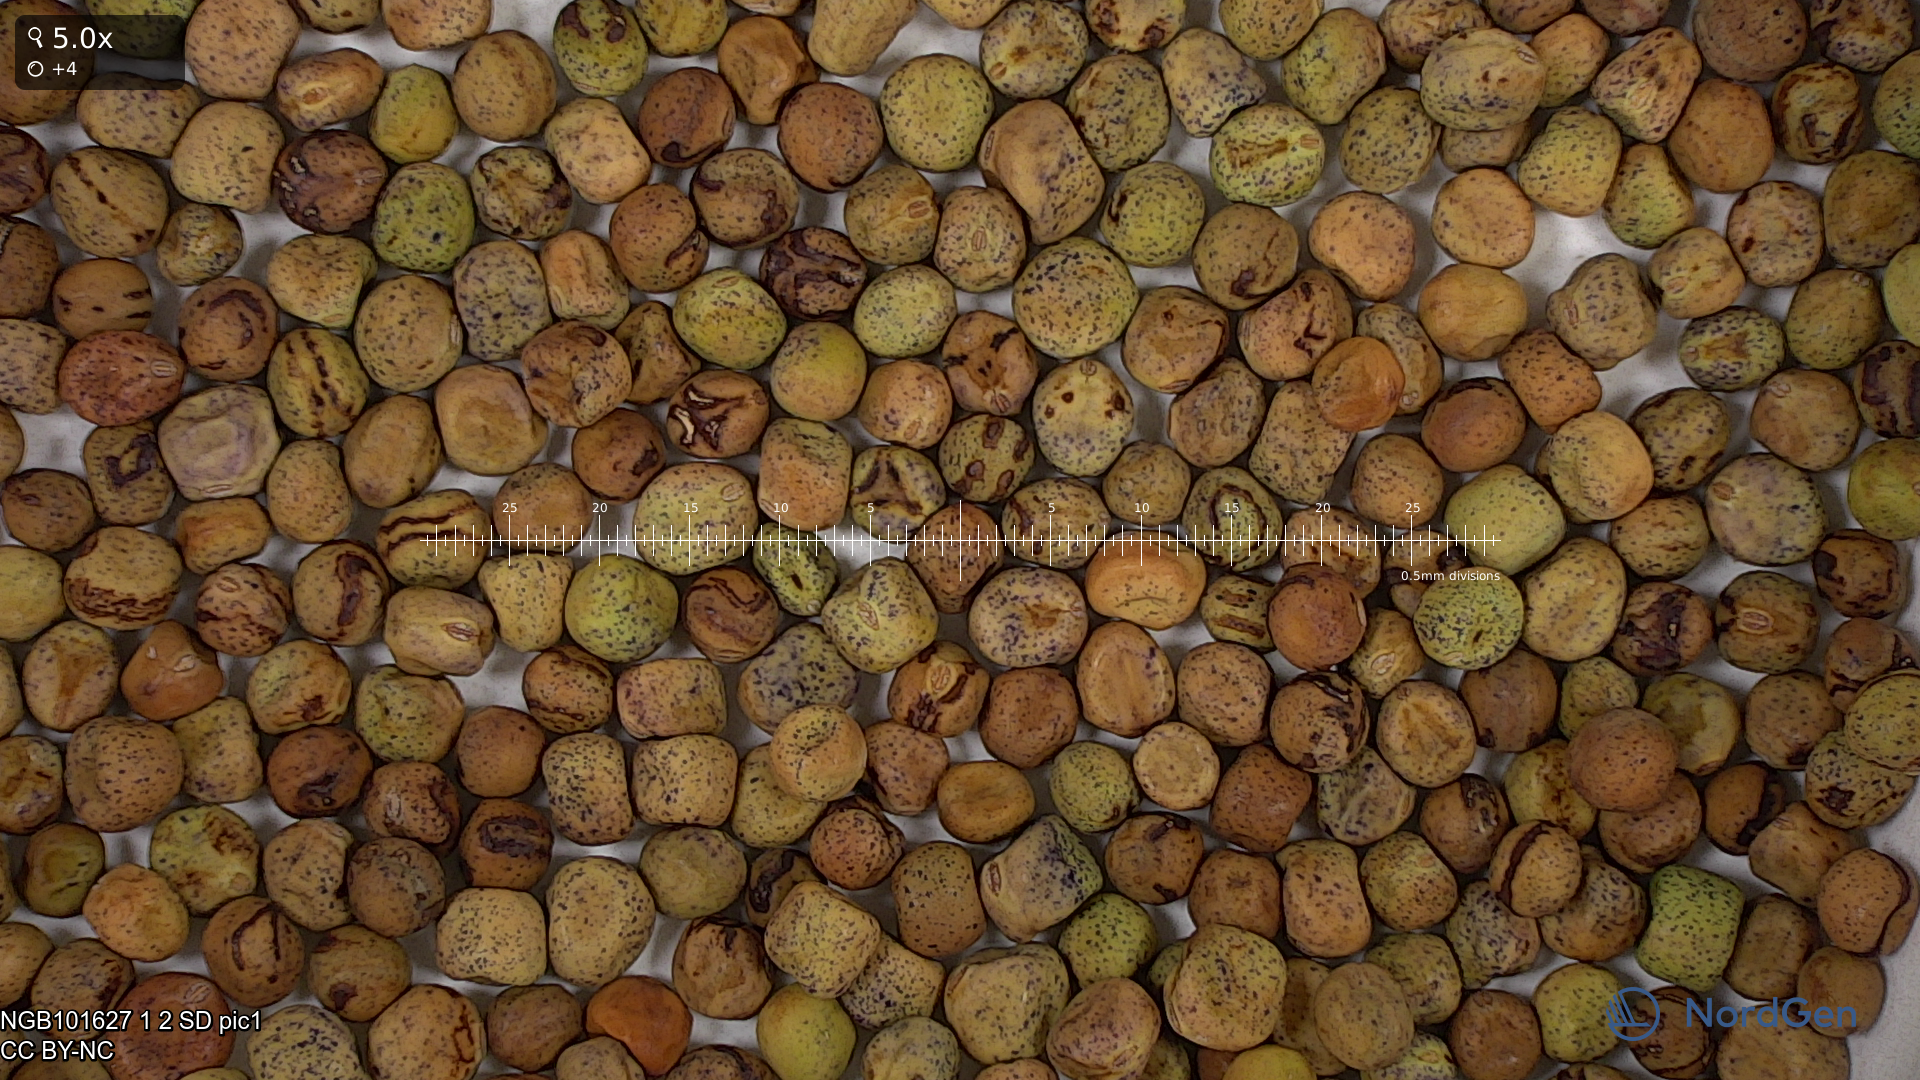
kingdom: Plantae
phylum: Tracheophyta
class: Magnoliopsida
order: Fabales
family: Fabaceae
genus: Lathyrus
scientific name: Lathyrus oleraceus
